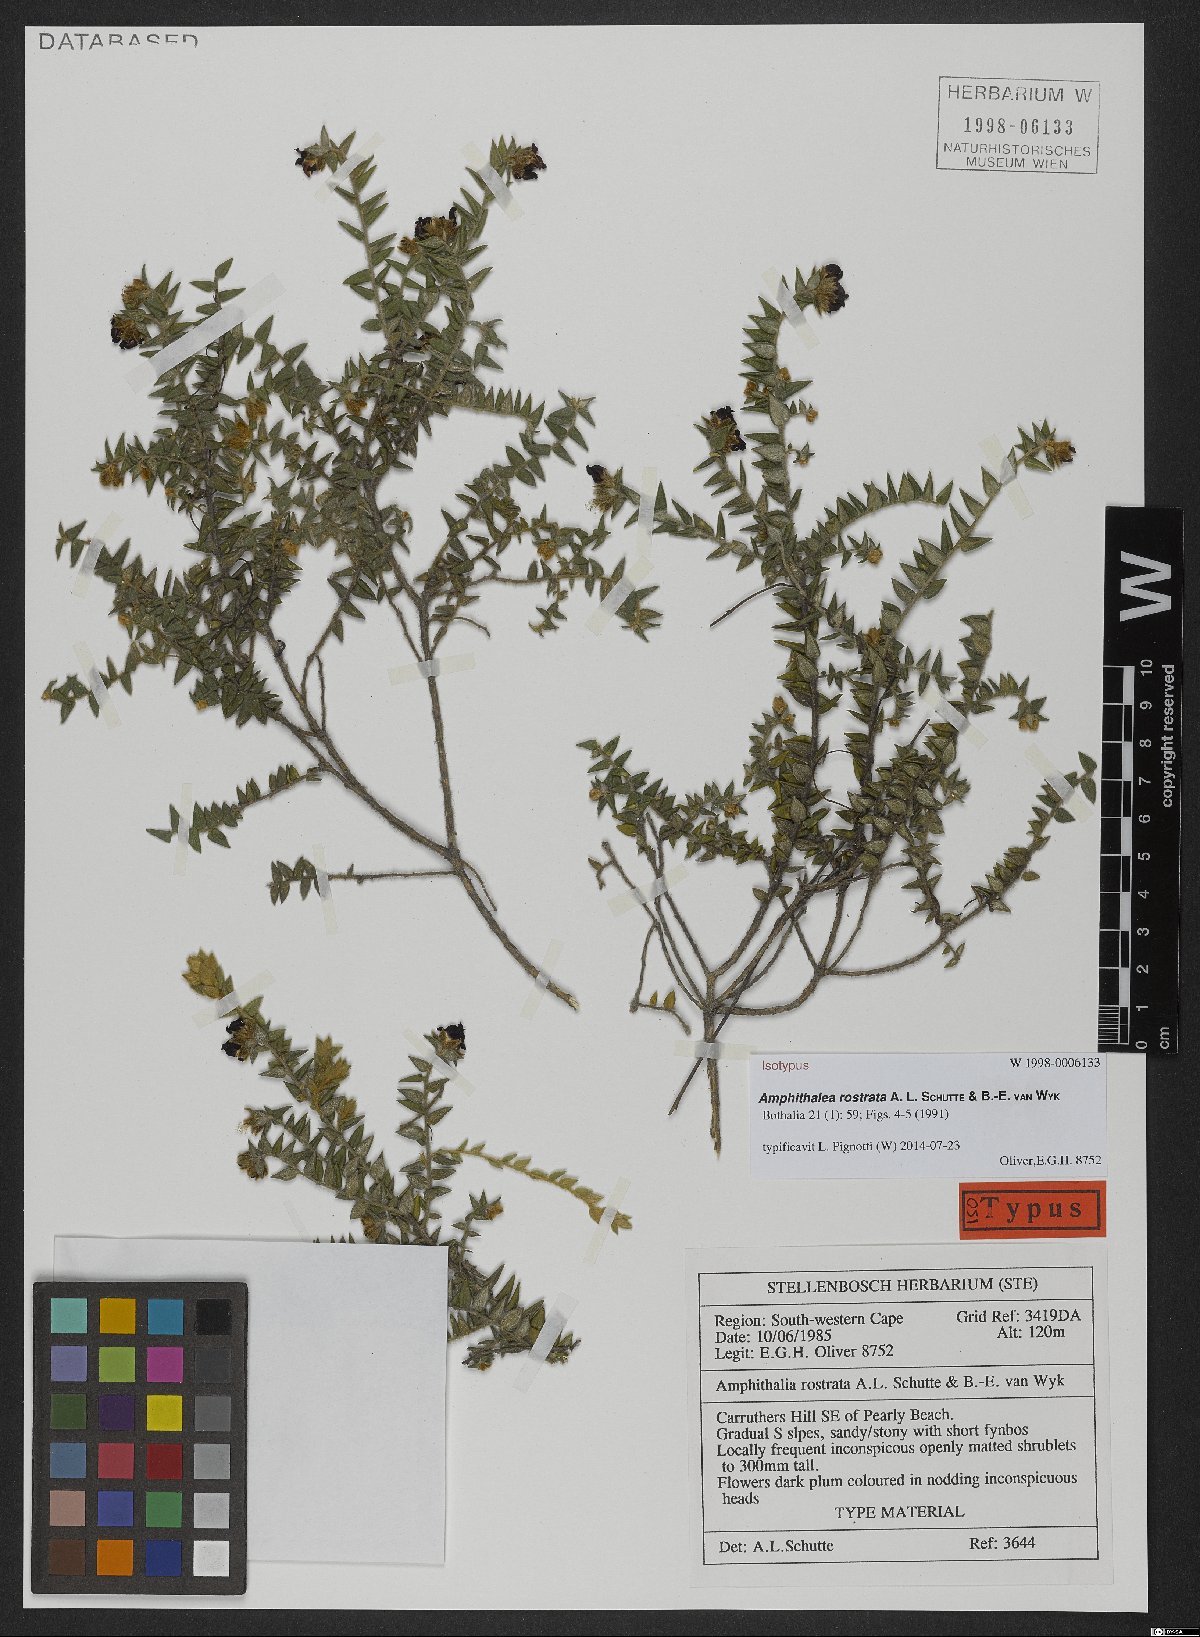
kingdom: Plantae
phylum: Tracheophyta
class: Magnoliopsida
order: Fabales
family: Fabaceae
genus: Amphithalea
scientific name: Amphithalea rostrata
